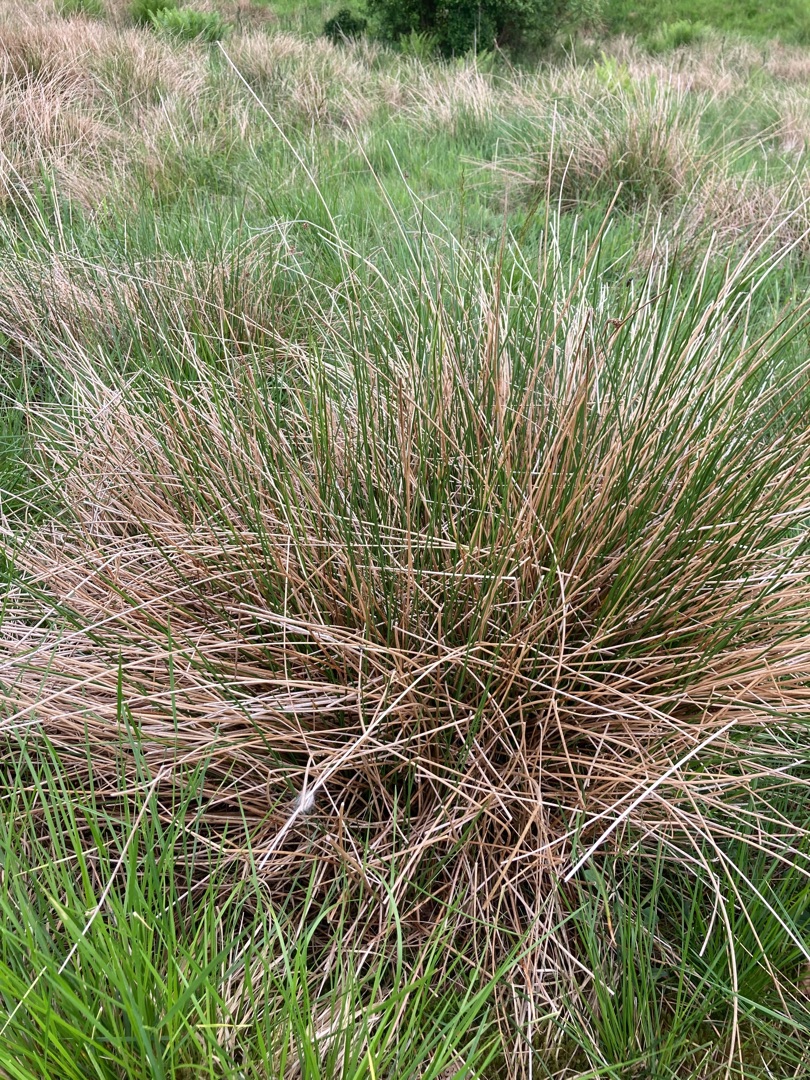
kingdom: Plantae
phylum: Tracheophyta
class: Liliopsida
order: Poales
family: Juncaceae
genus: Juncus
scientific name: Juncus effusus
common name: Lyse-siv
